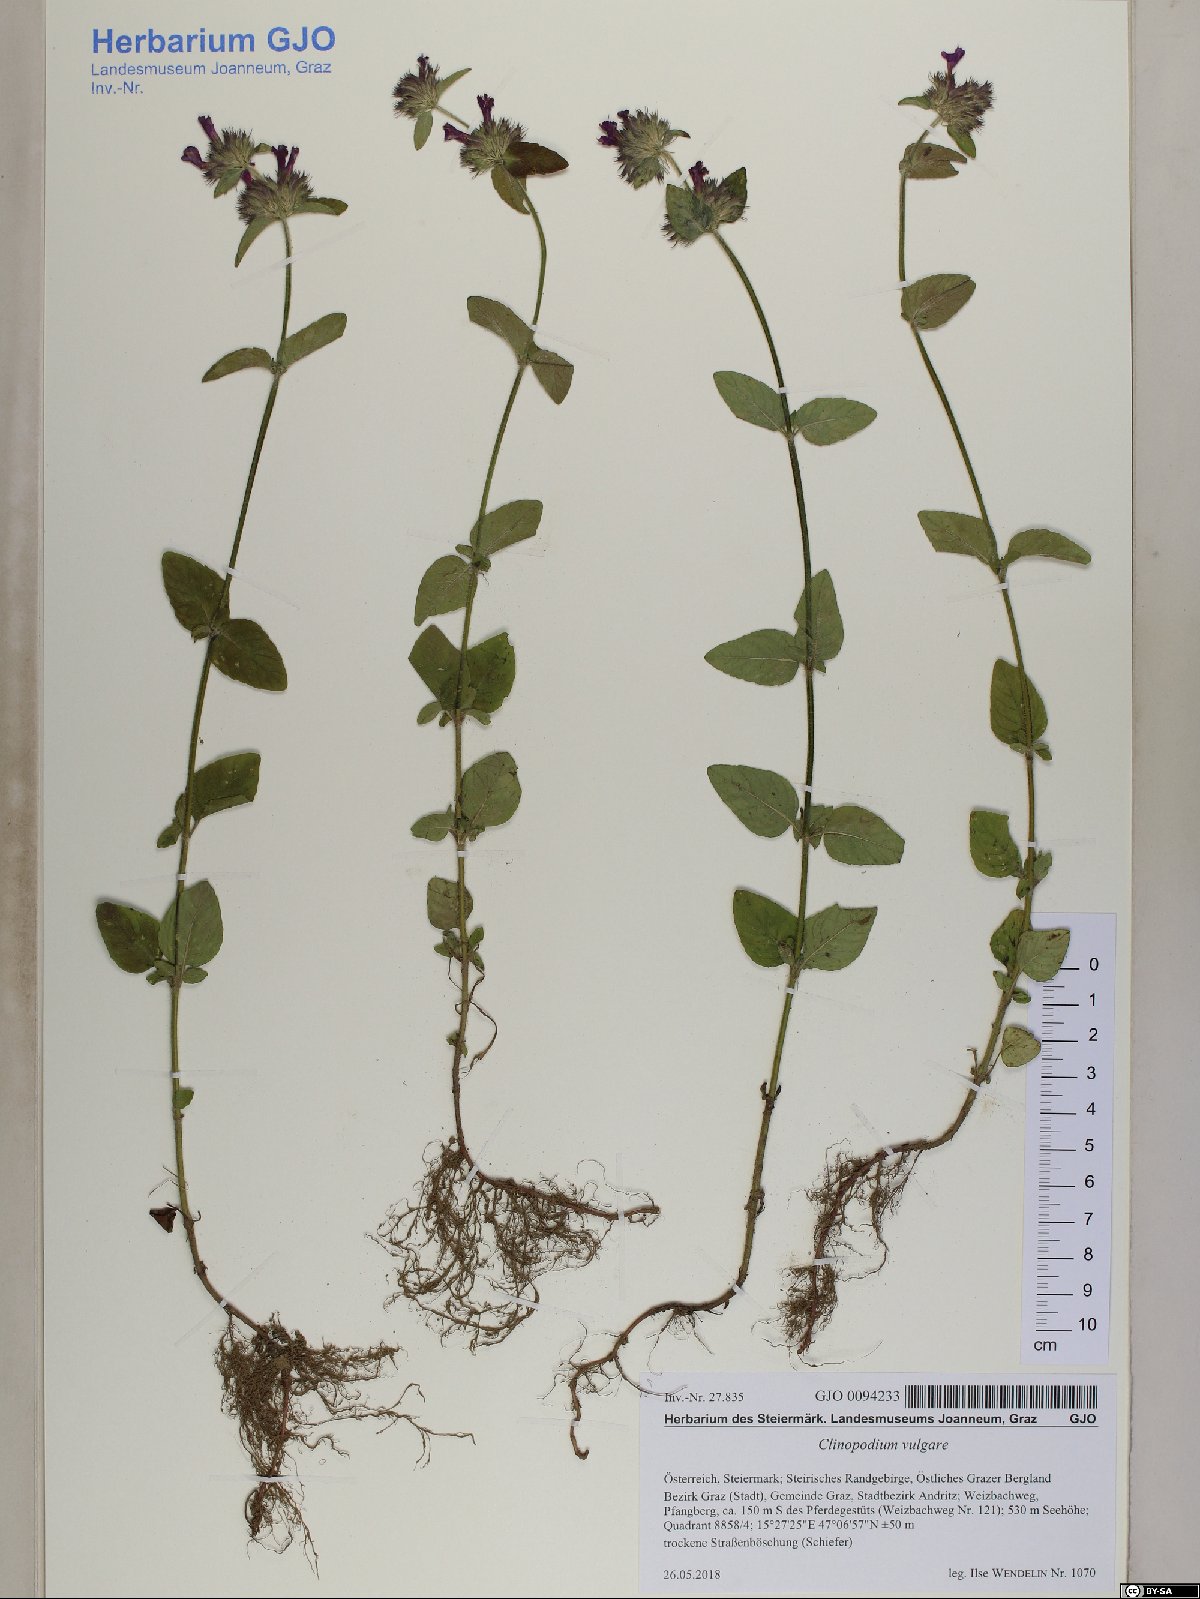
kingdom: Plantae
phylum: Tracheophyta
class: Magnoliopsida
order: Lamiales
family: Lamiaceae
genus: Clinopodium
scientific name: Clinopodium vulgare
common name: Wild basil
